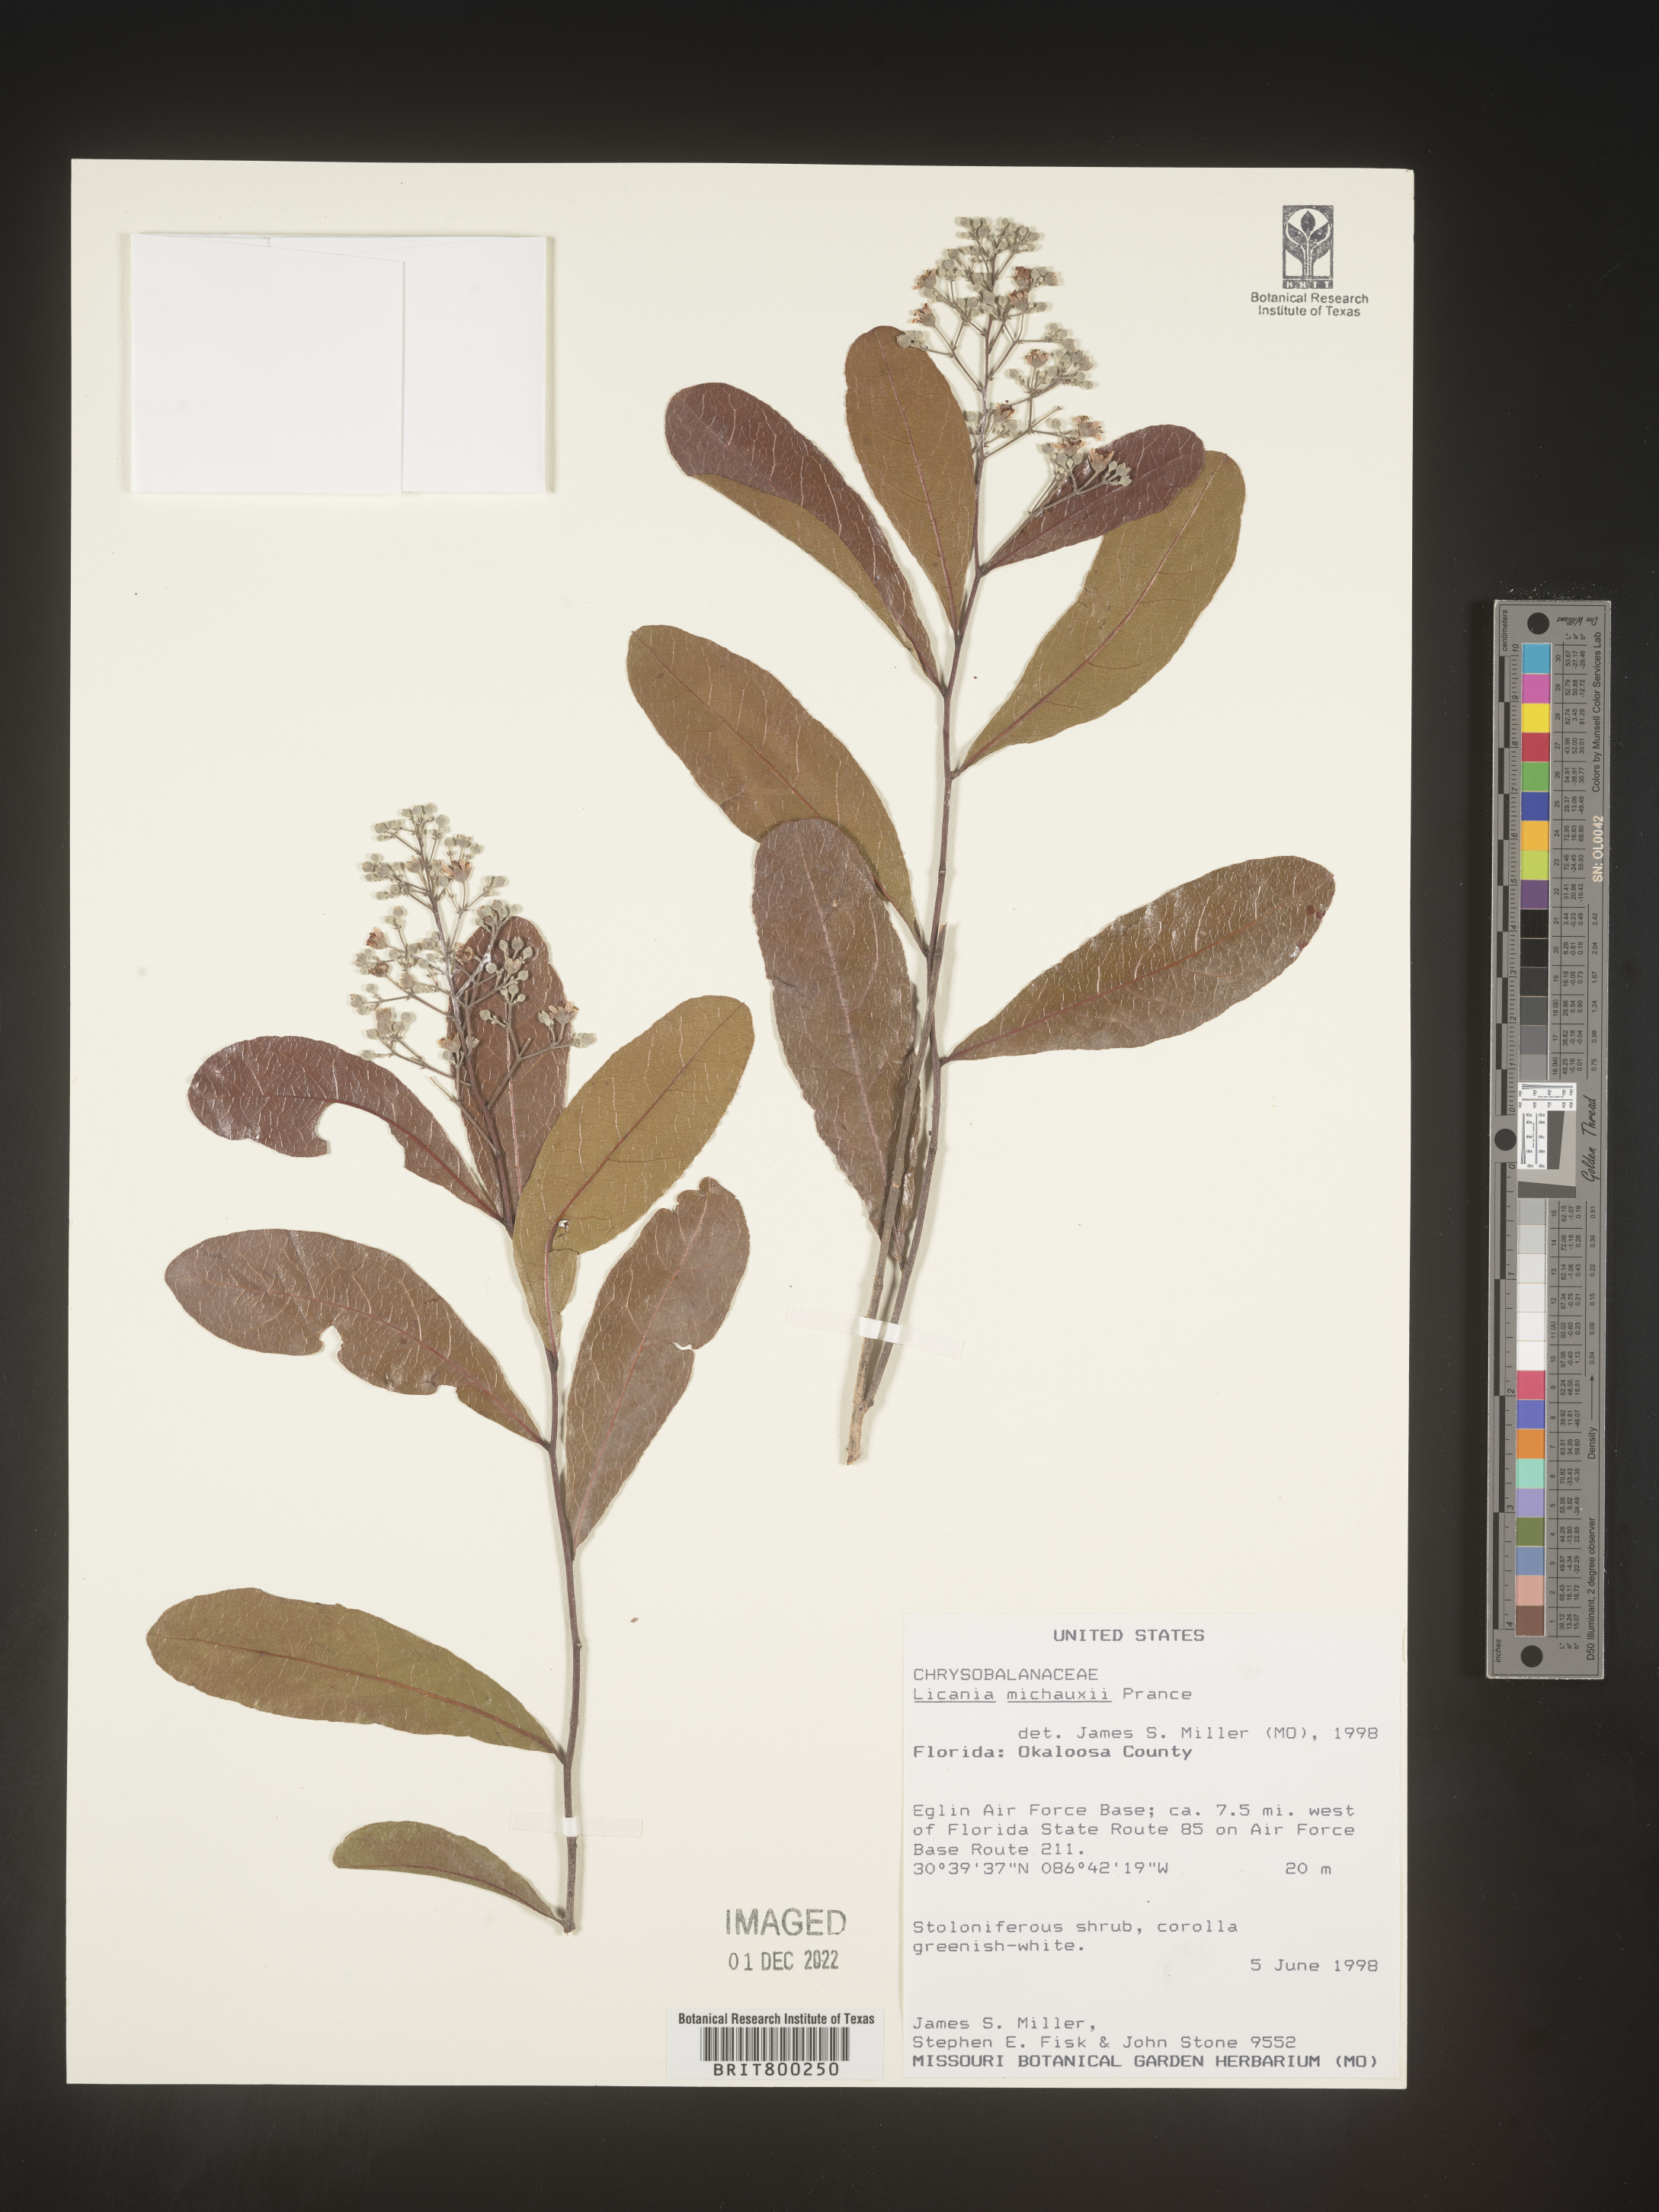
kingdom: Plantae
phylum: Tracheophyta
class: Magnoliopsida
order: Malpighiales
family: Chrysobalanaceae
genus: Geobalanus
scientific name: Geobalanus oblongifolius
